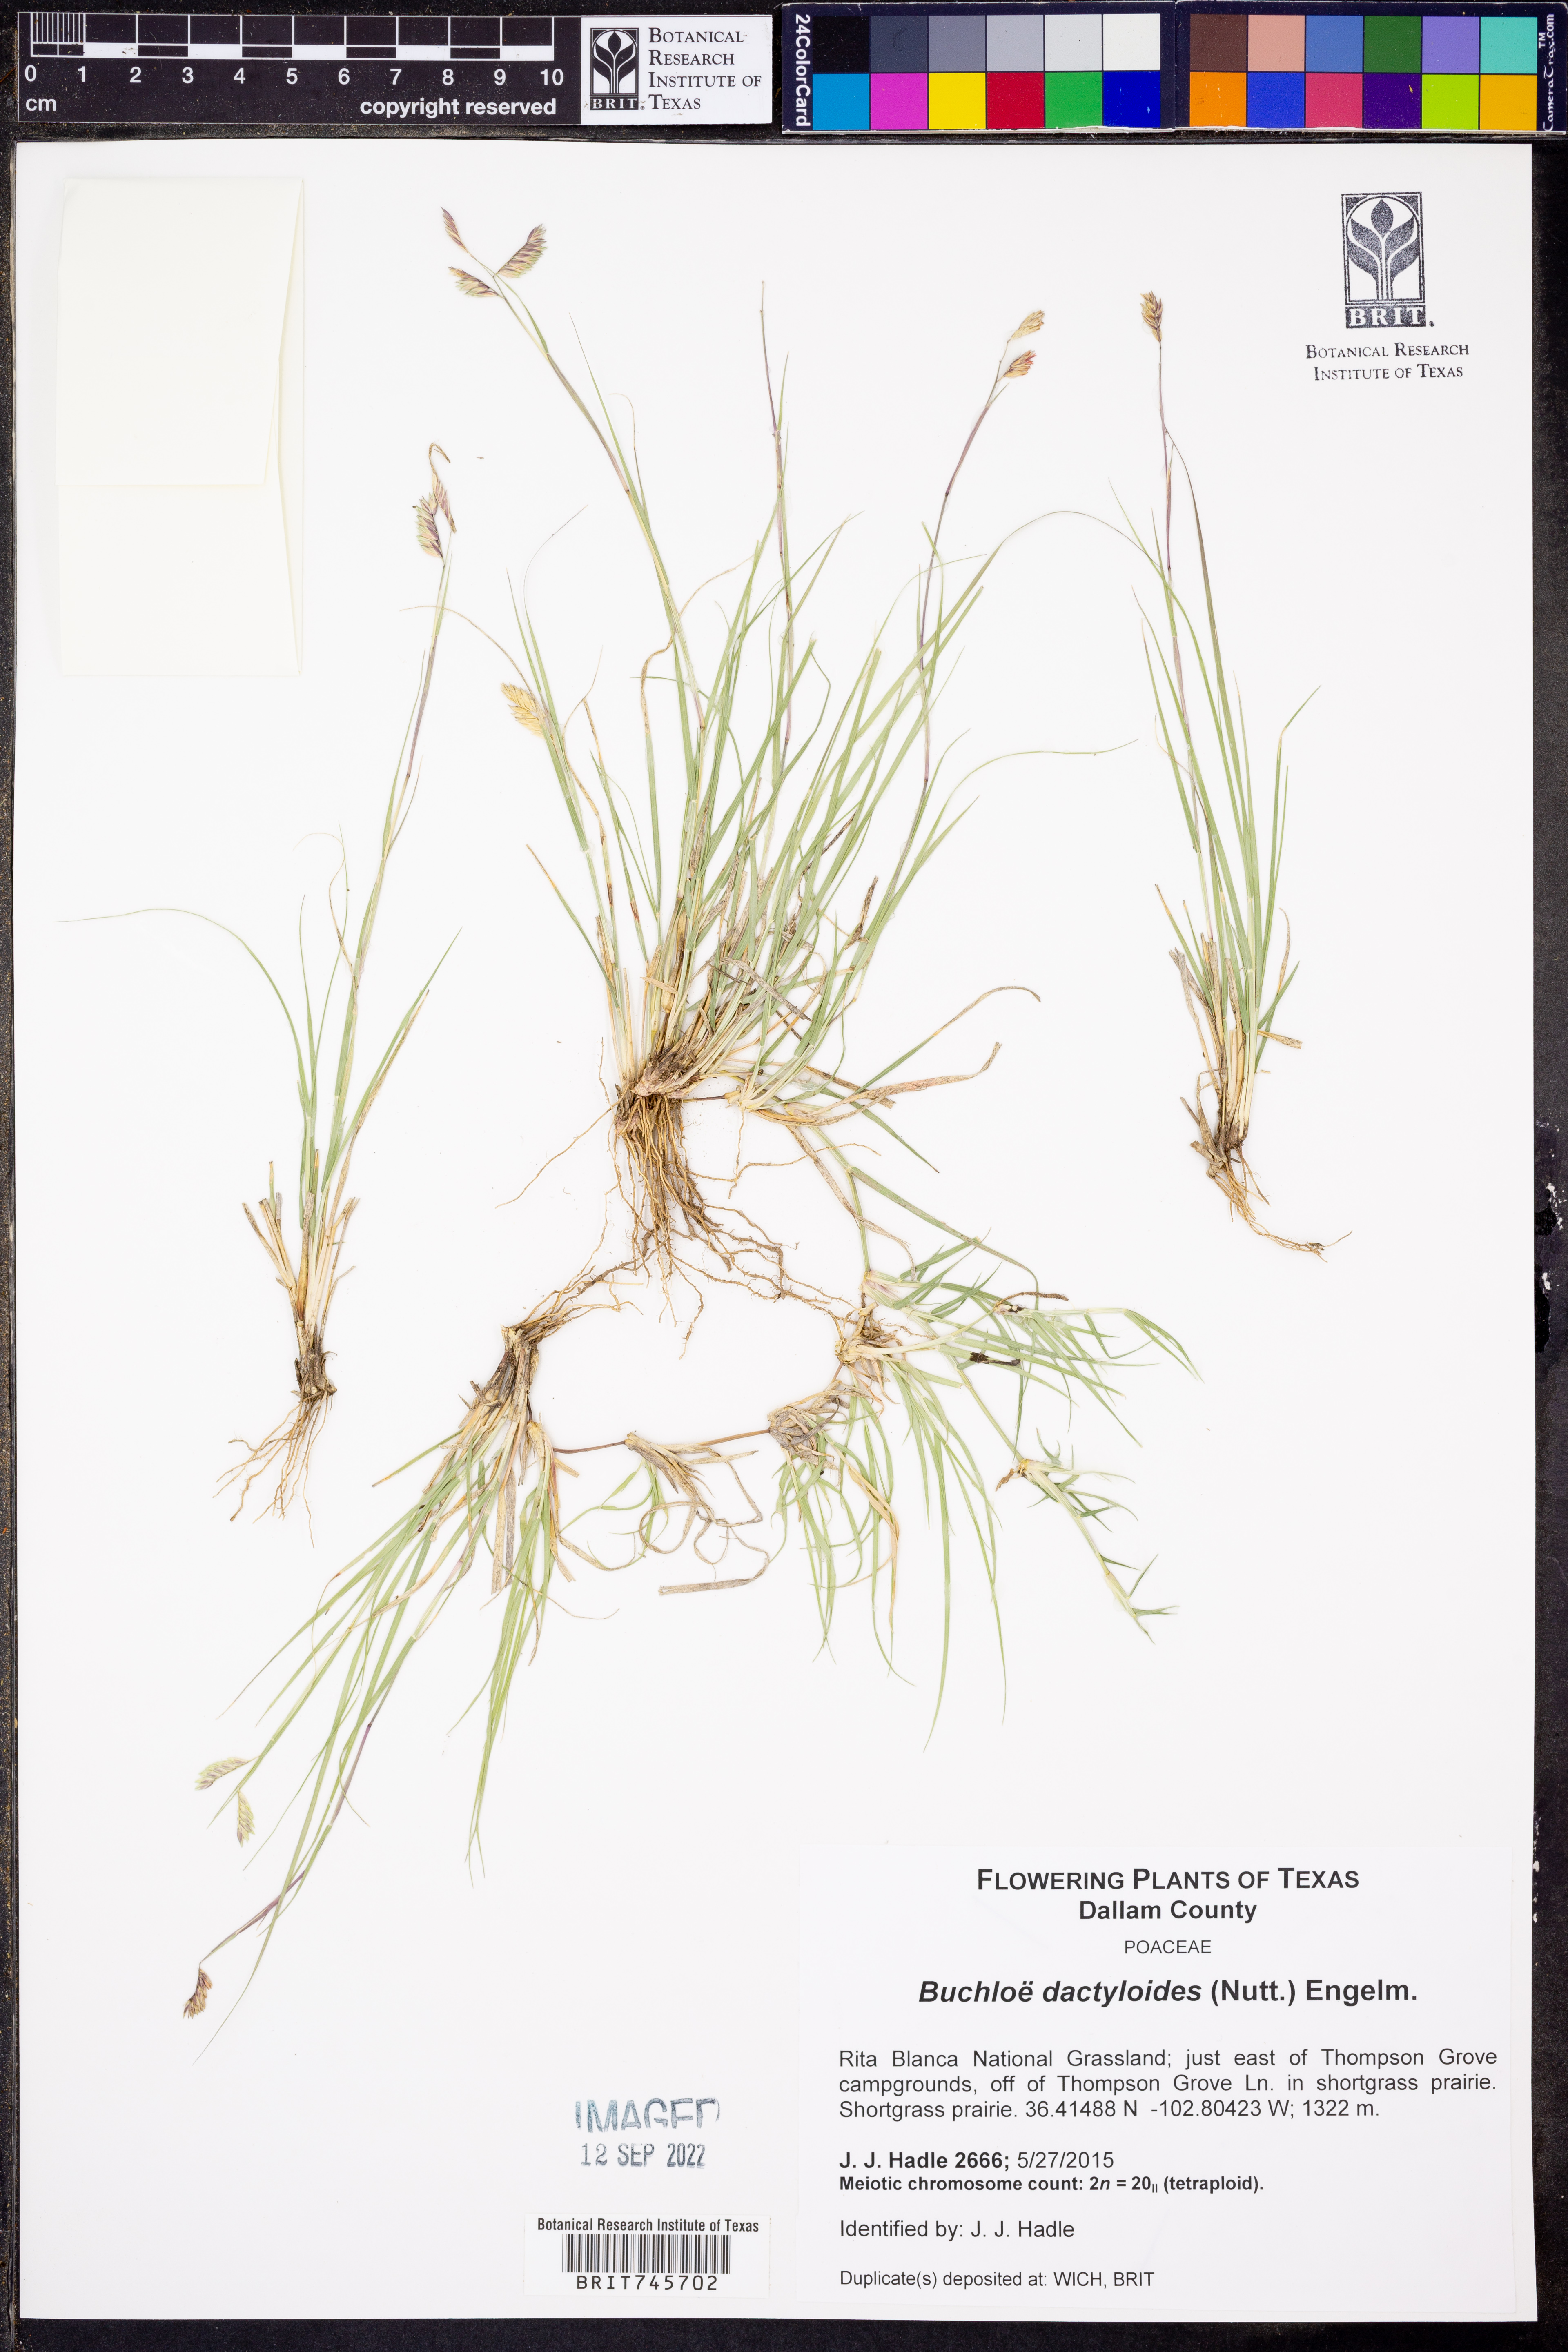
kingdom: Plantae
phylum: Tracheophyta
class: Liliopsida
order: Poales
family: Poaceae
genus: Bouteloua
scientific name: Bouteloua dactyloides
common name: Buffalo grass
